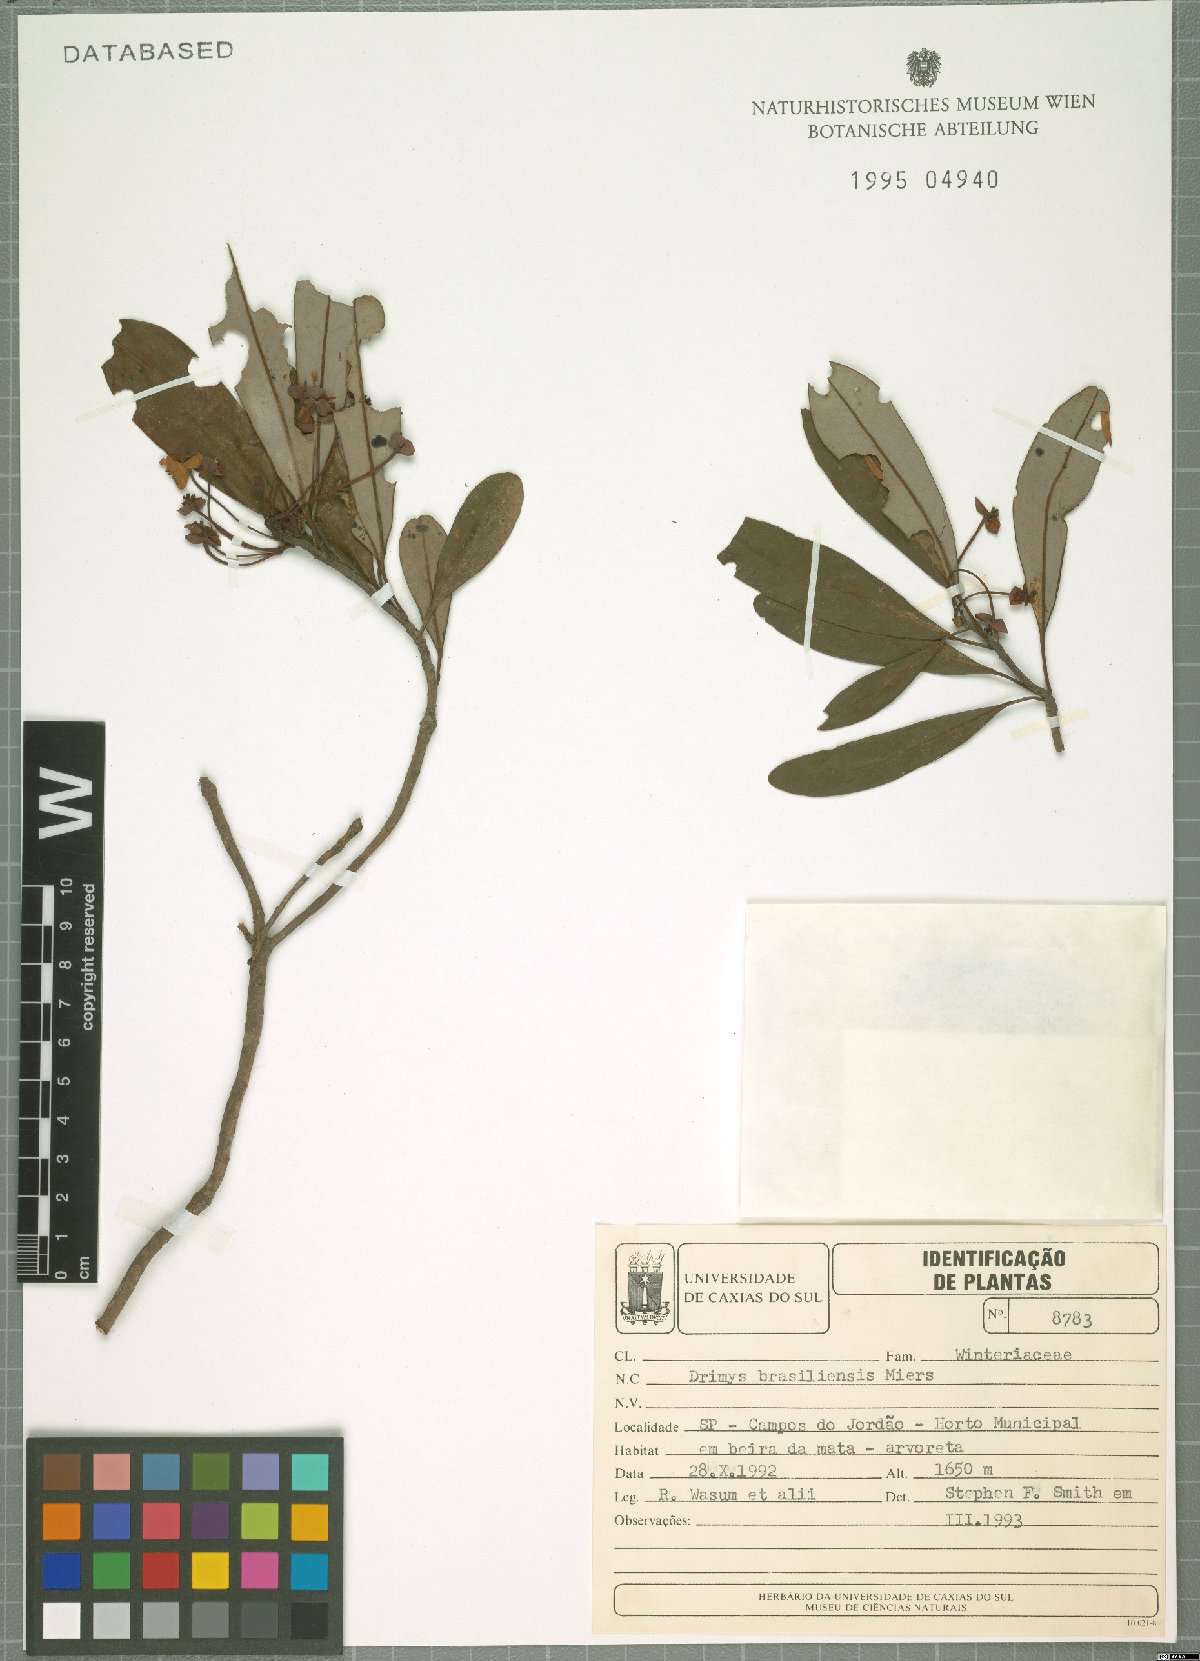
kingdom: Plantae
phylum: Tracheophyta
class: Magnoliopsida
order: Canellales
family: Winteraceae
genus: Drimys
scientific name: Drimys brasiliensis
